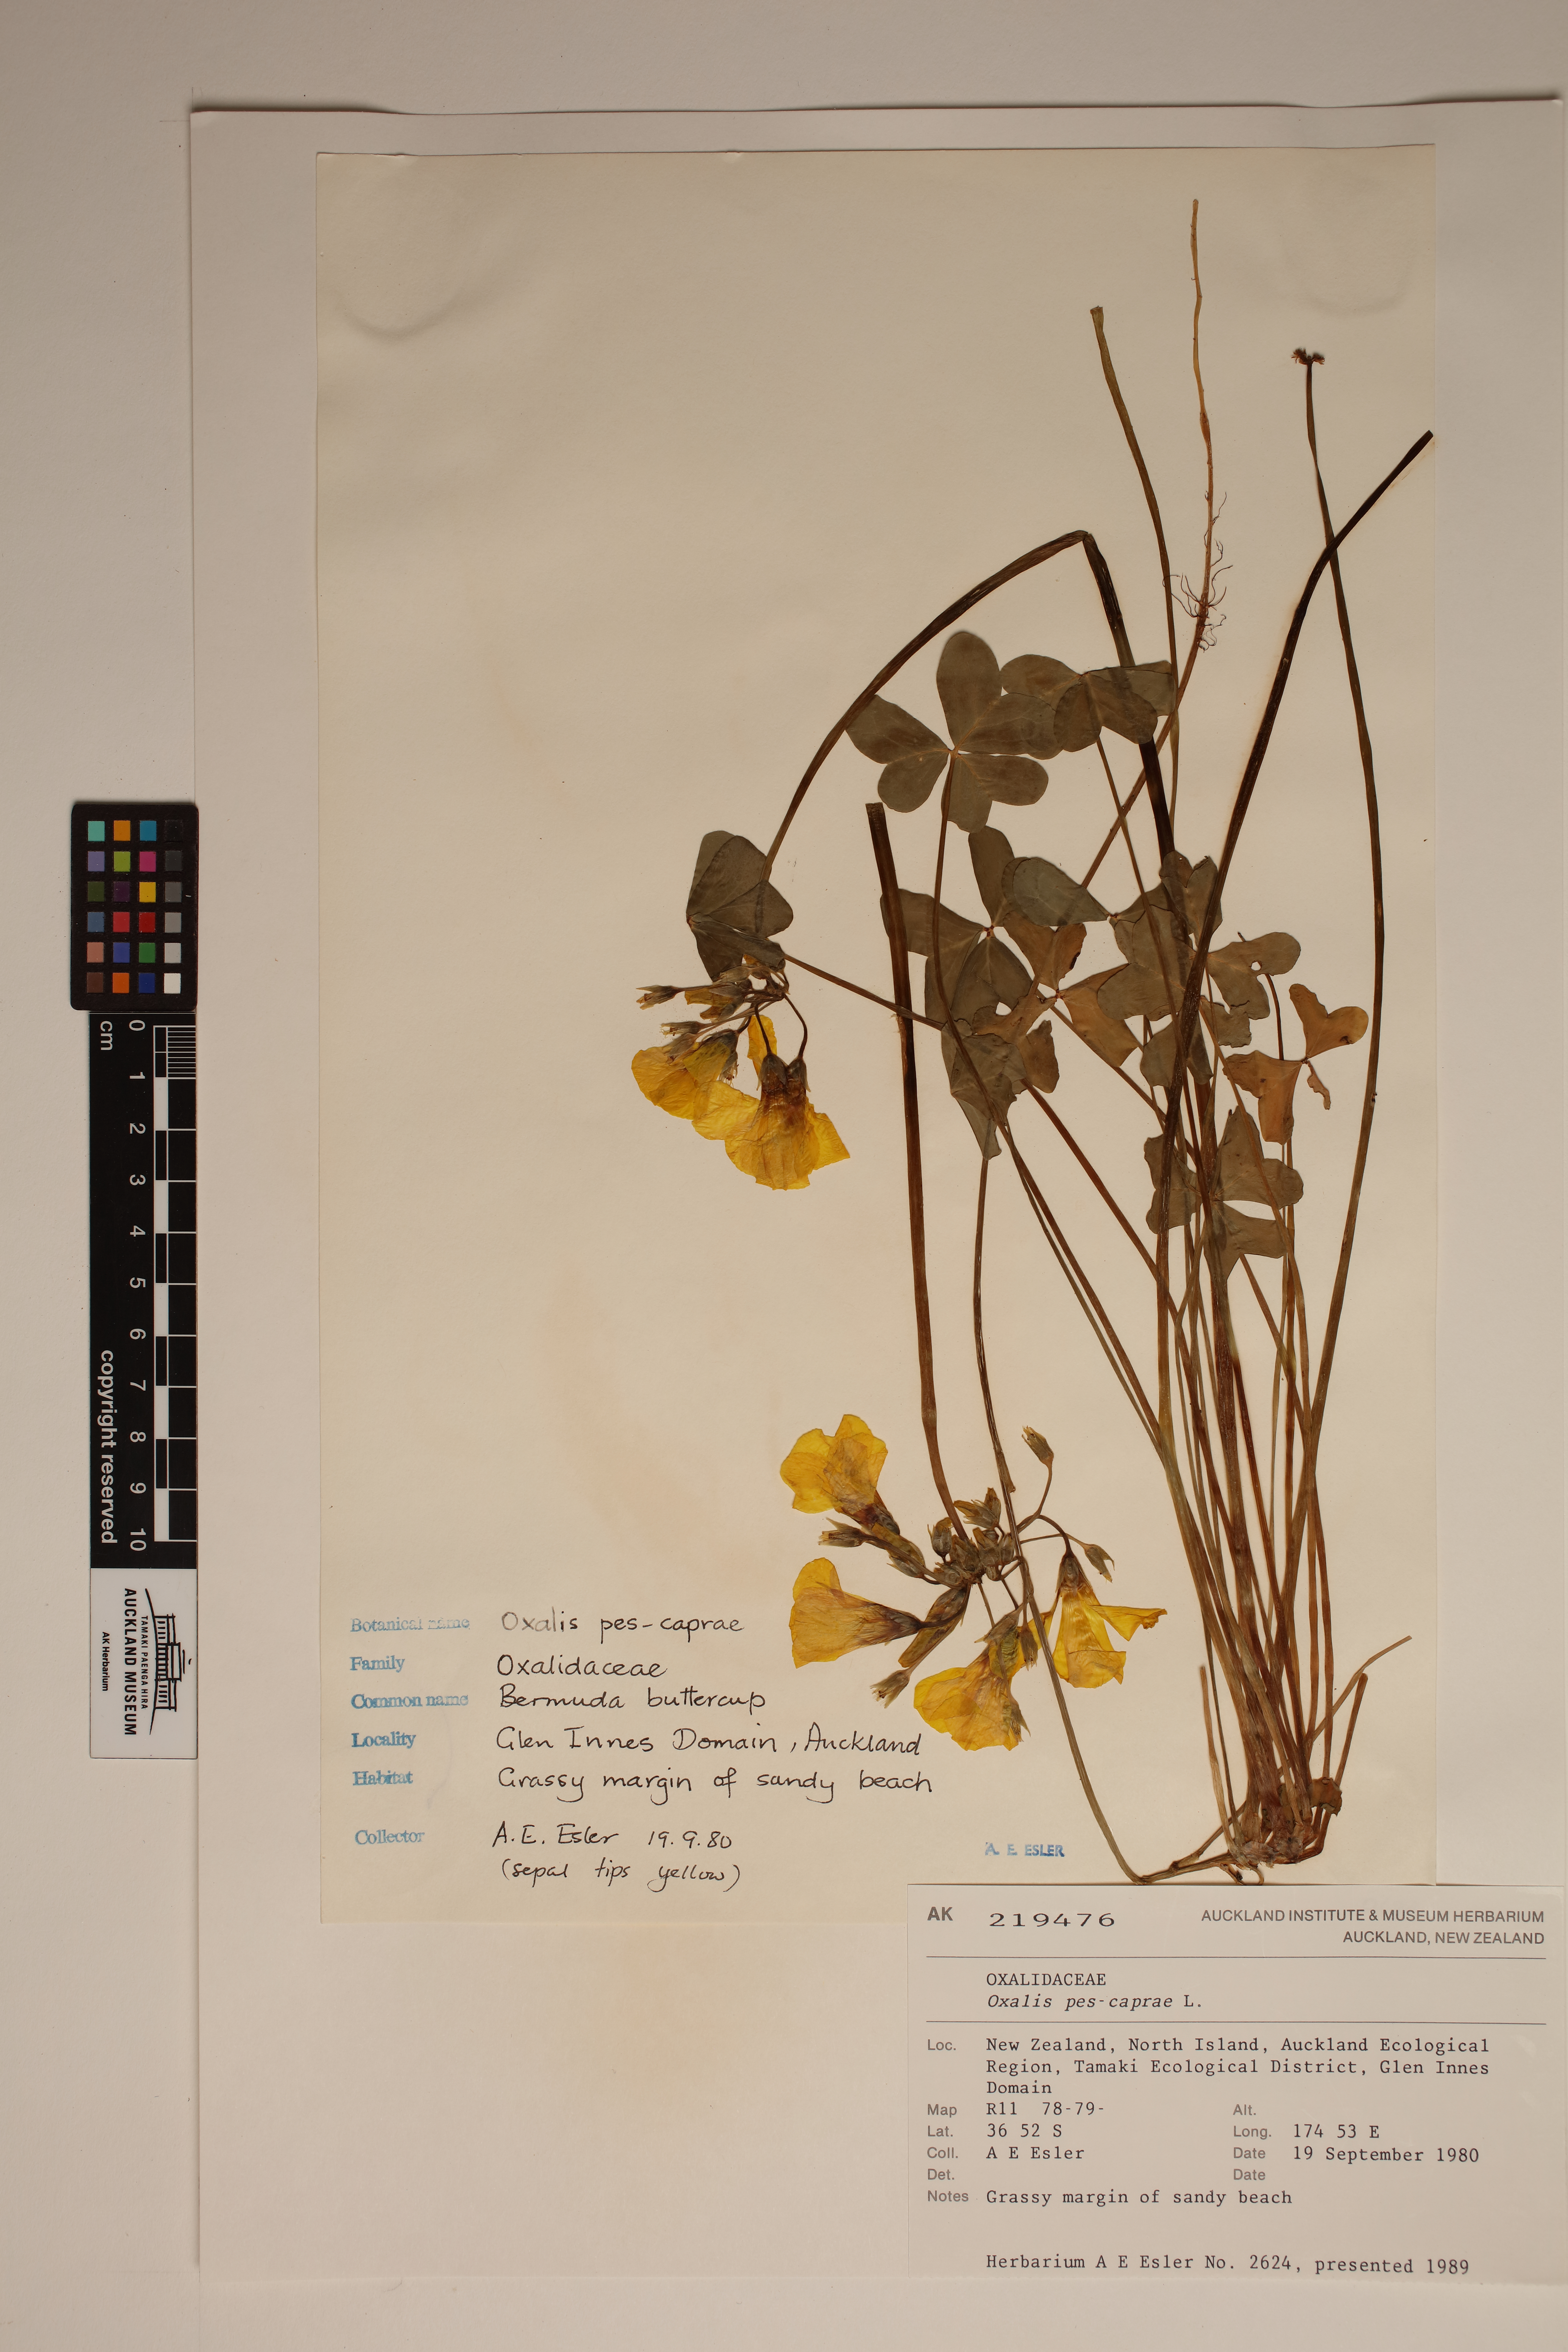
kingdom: Plantae
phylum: Tracheophyta
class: Magnoliopsida
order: Oxalidales
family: Oxalidaceae
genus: Oxalis
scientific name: Oxalis pes-caprae
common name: Bermuda-buttercup
